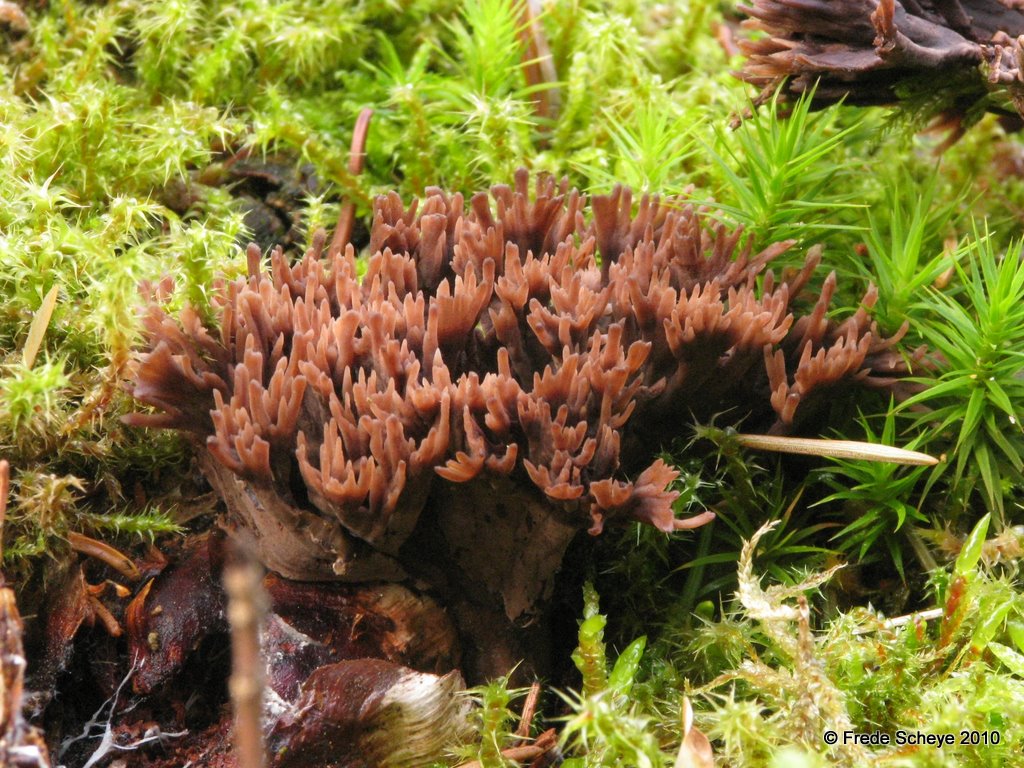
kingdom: Fungi
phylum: Basidiomycota
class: Agaricomycetes
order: Thelephorales
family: Thelephoraceae
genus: Thelephora
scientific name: Thelephora palmata
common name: grenet frynsesvamp
